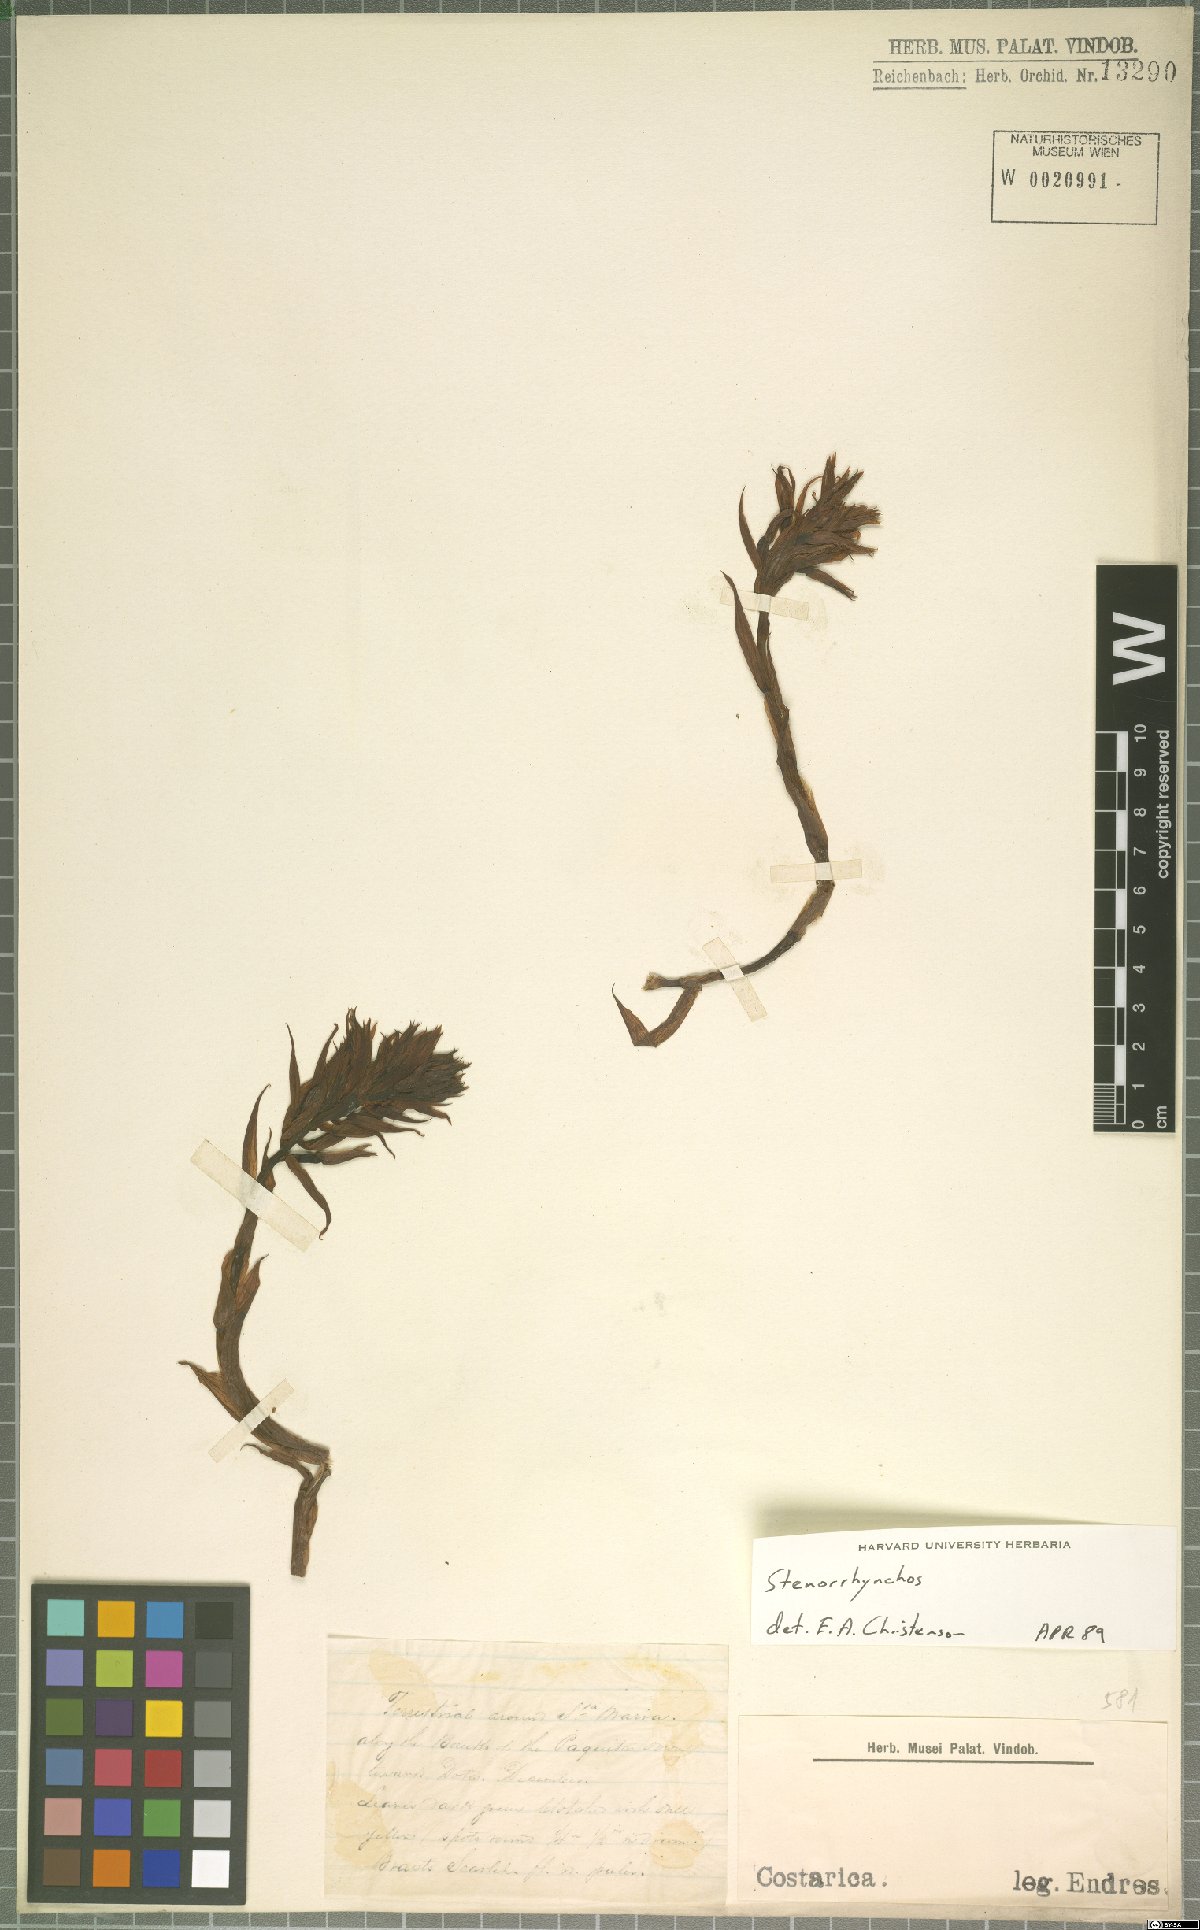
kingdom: Plantae
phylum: Tracheophyta
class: Liliopsida
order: Asparagales
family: Orchidaceae
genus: Stenorrhynchos
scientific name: Stenorrhynchos
